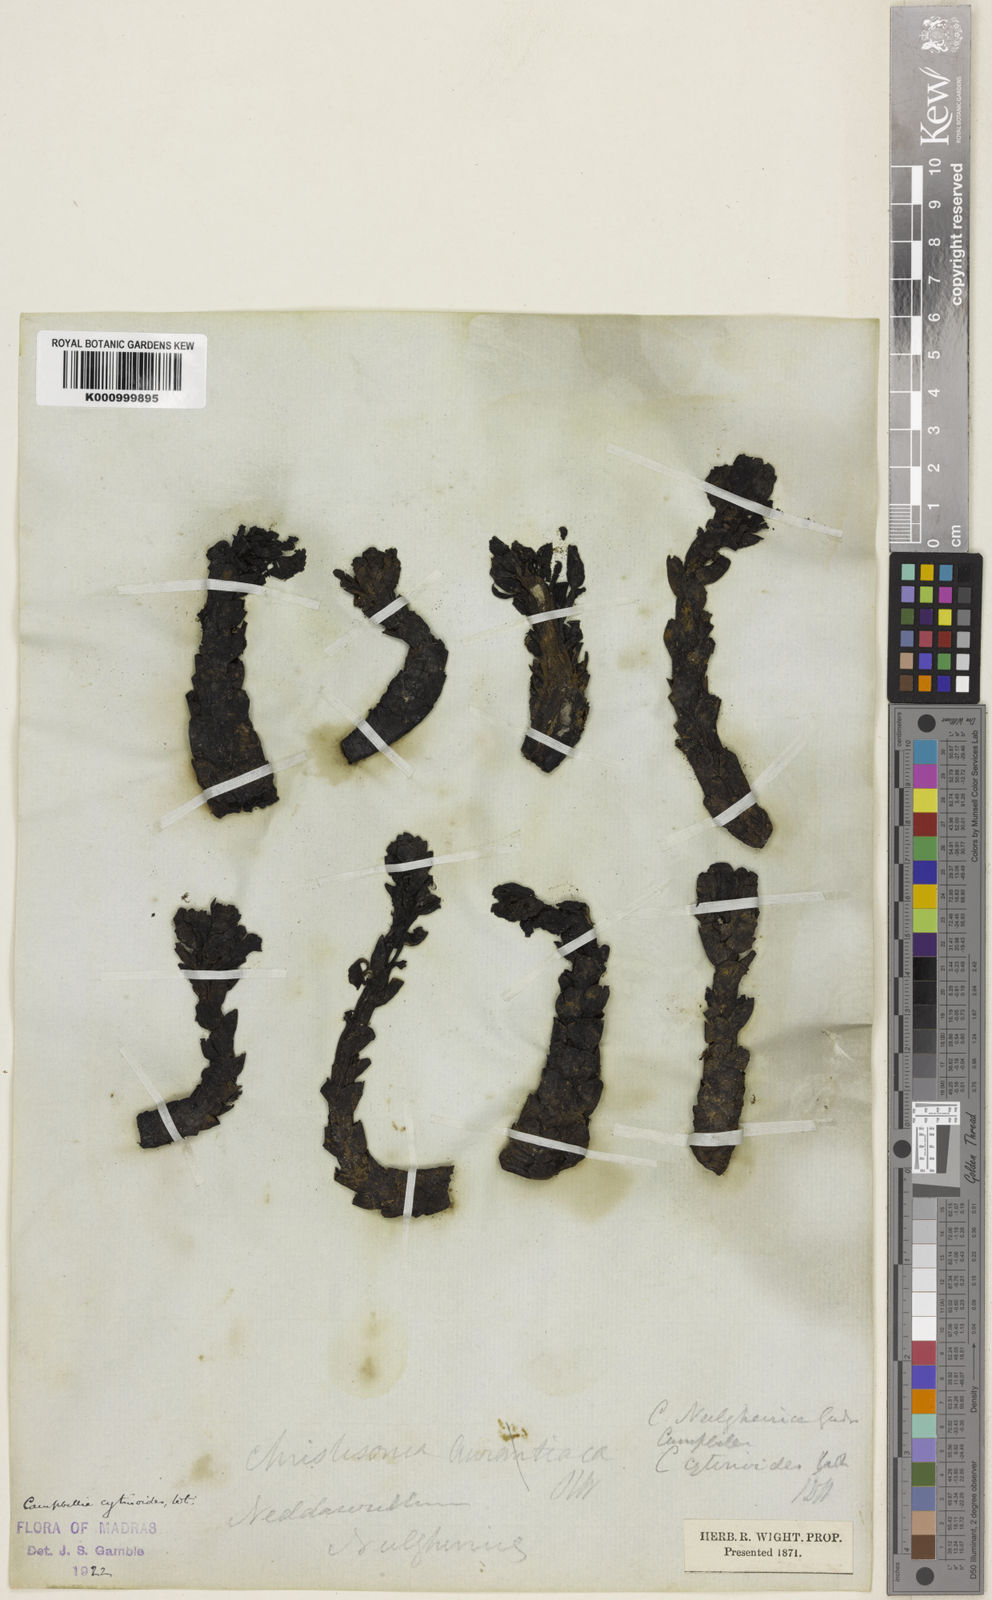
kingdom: Plantae
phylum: Tracheophyta
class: Magnoliopsida
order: Lamiales
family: Orobanchaceae
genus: Christisonia
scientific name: Christisonia bicolor
